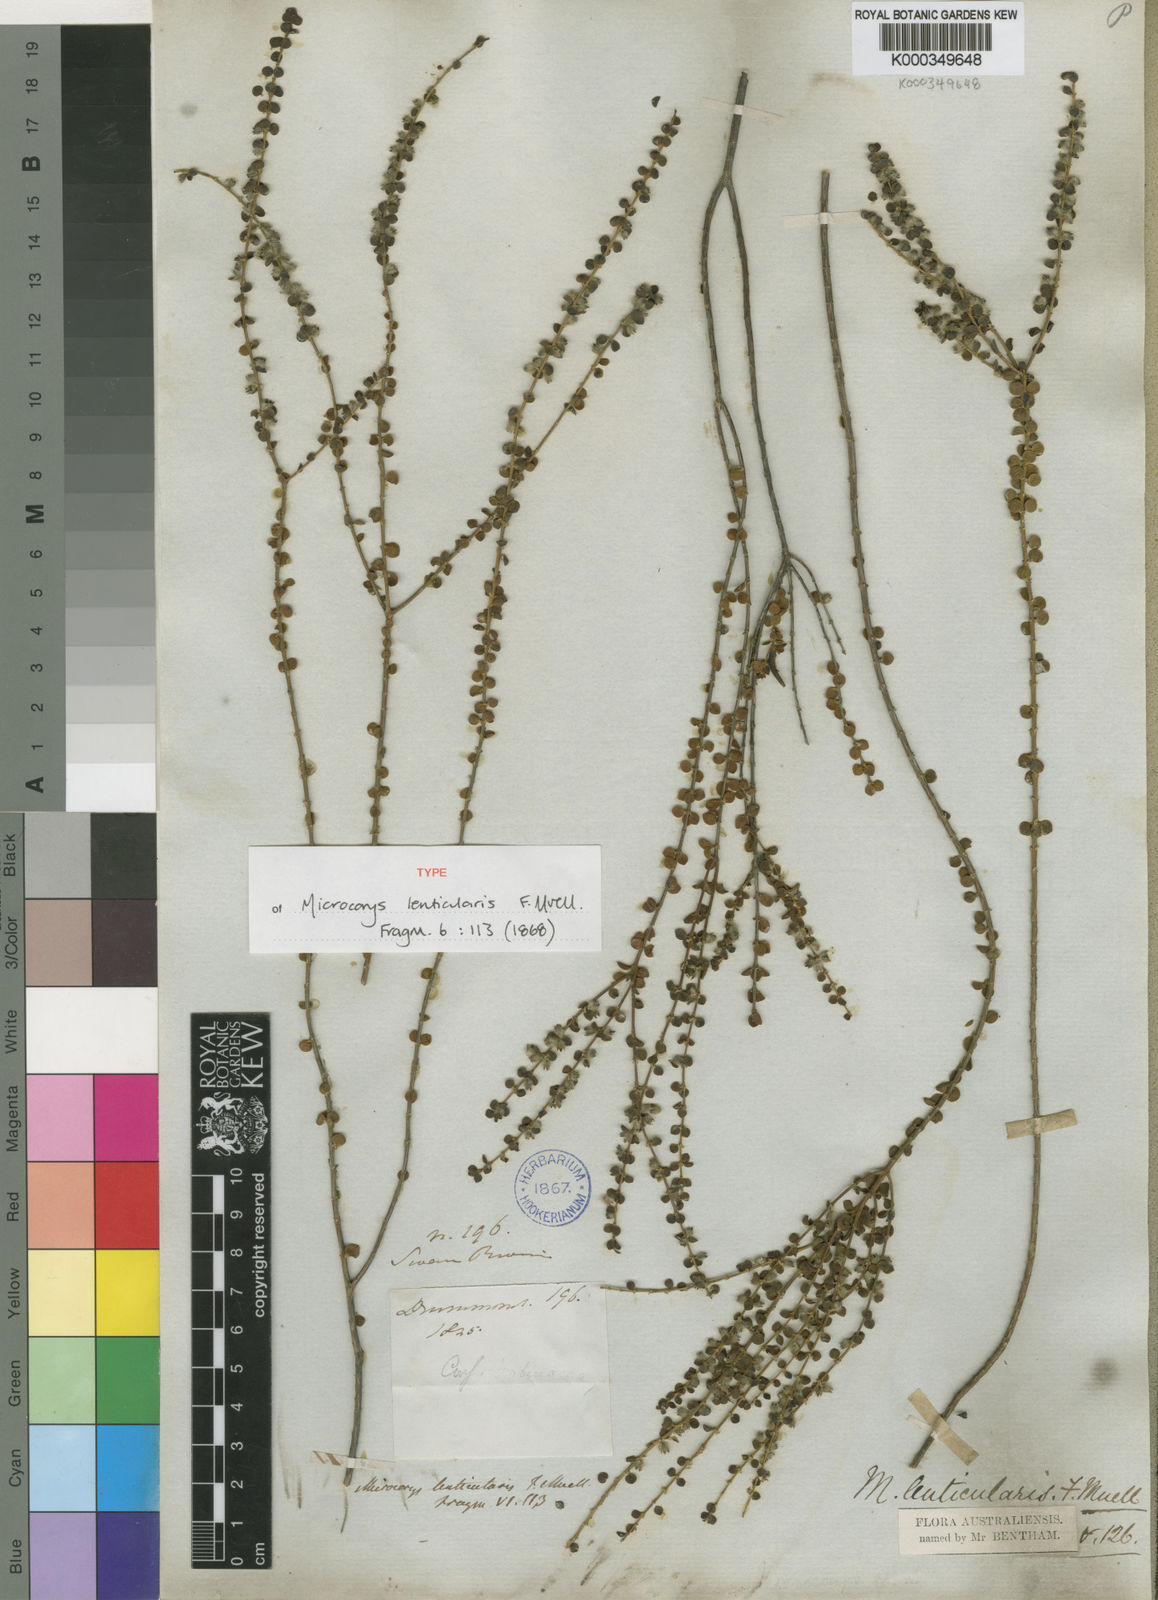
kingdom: Plantae
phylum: Tracheophyta
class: Magnoliopsida
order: Lamiales
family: Lamiaceae
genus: Microcorys
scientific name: Microcorys lenticularis
